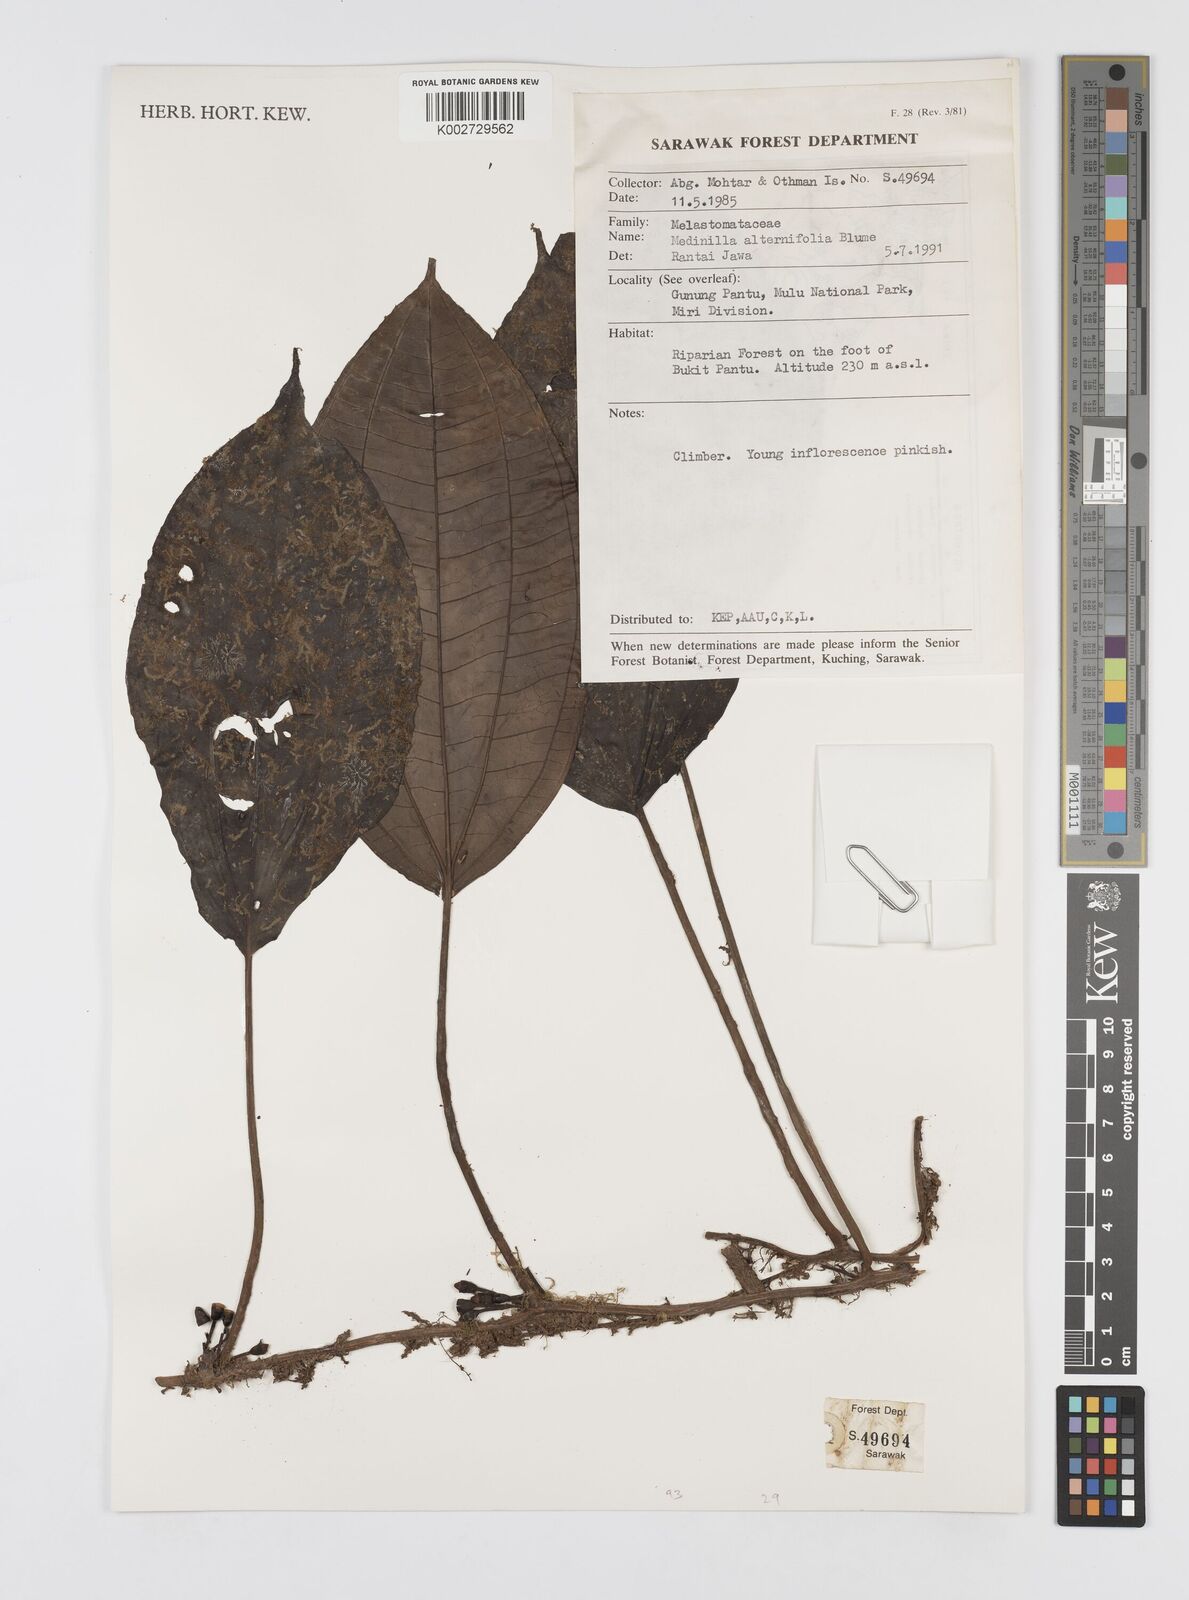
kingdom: Plantae
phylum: Tracheophyta
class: Magnoliopsida
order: Myrtales
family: Melastomataceae
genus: Heteroblemma
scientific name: Heteroblemma alternifolium
